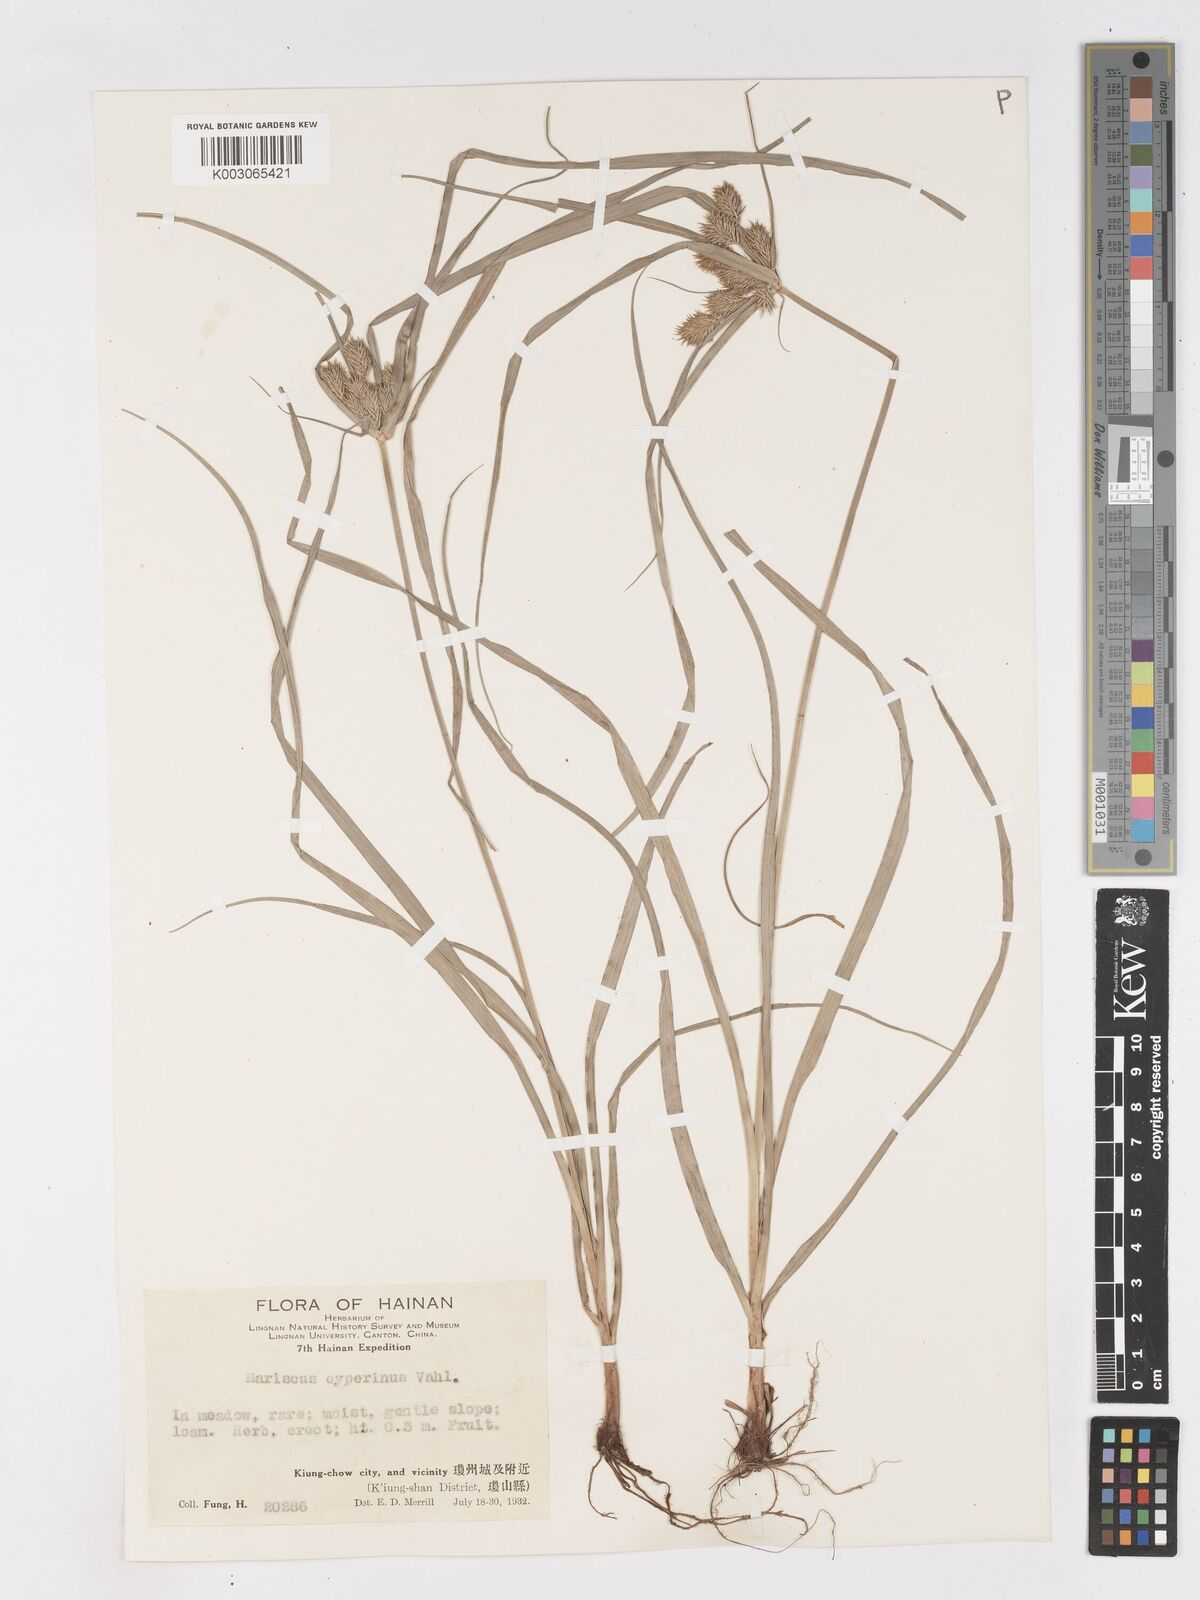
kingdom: Plantae
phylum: Tracheophyta
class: Liliopsida
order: Poales
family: Cyperaceae
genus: Cyperus
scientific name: Cyperus cyperinus
